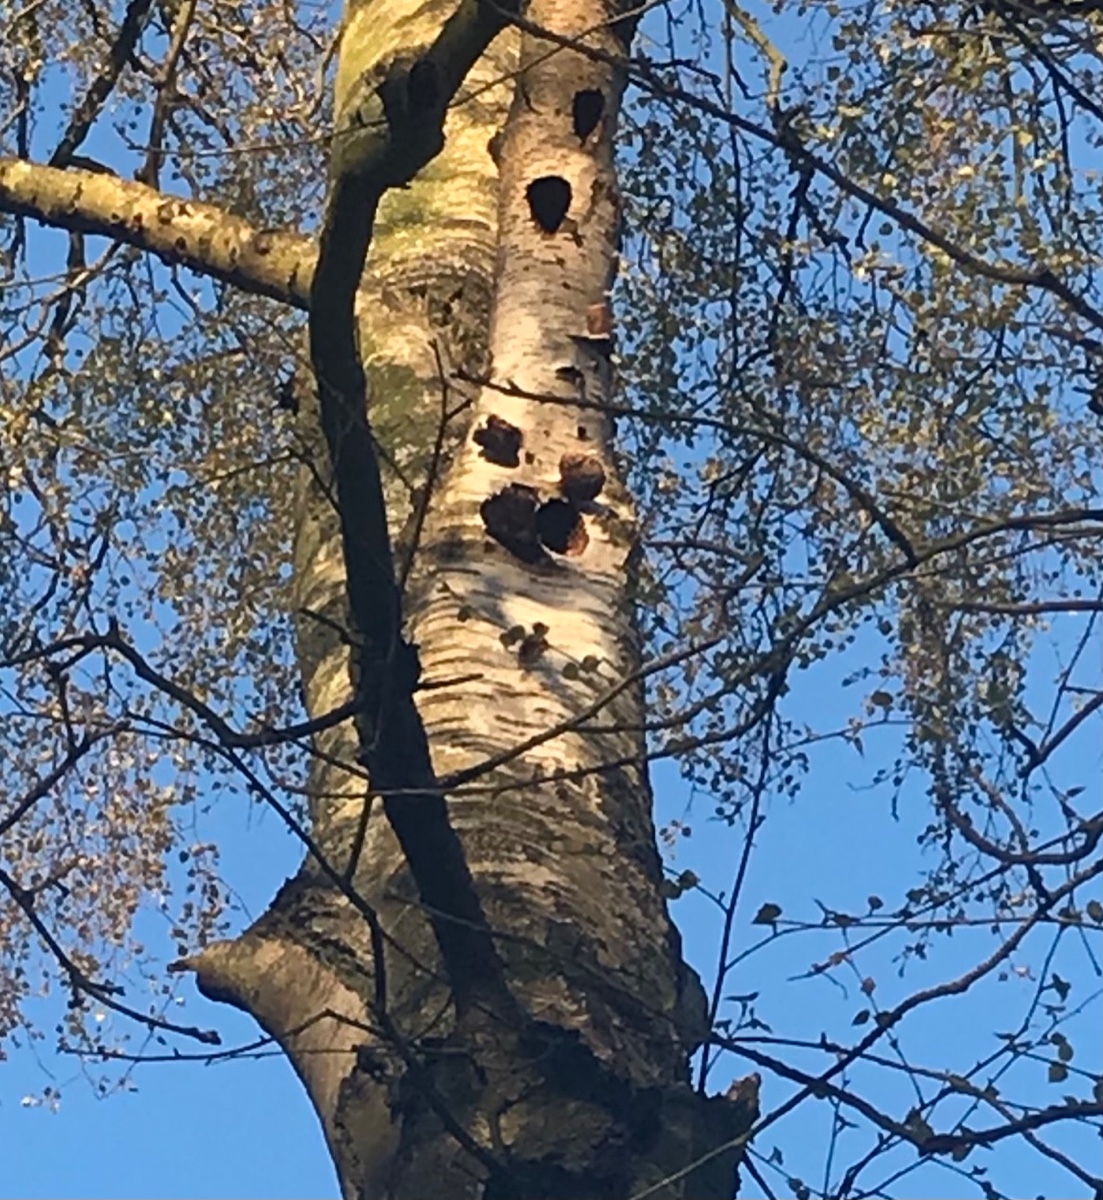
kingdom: Fungi
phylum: Basidiomycota
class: Agaricomycetes
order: Polyporales
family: Fomitopsidaceae
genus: Fomitopsis
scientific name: Fomitopsis betulina
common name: birkeporesvamp
